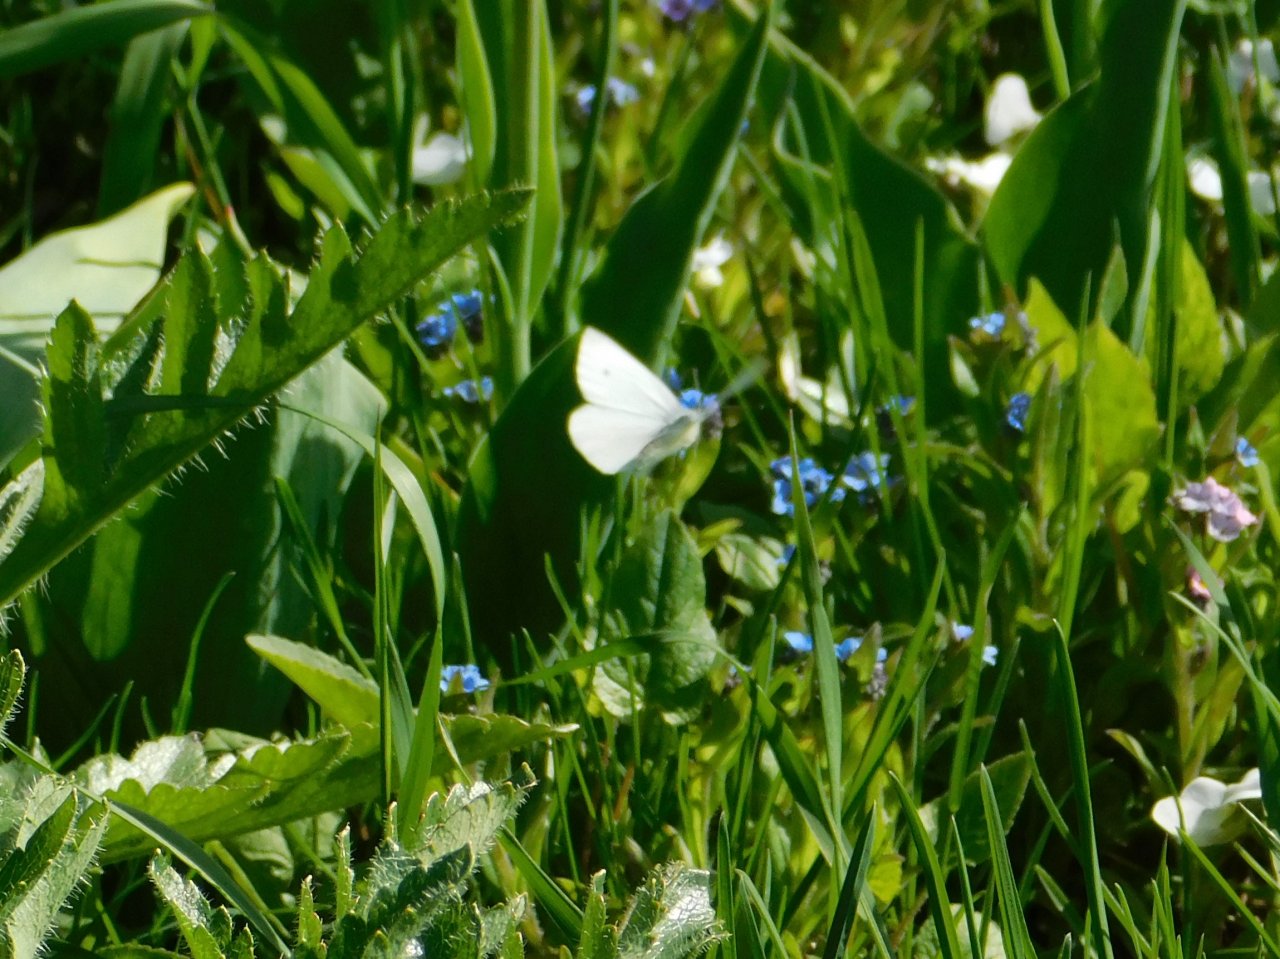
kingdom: Animalia
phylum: Arthropoda
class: Insecta
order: Lepidoptera
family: Pieridae
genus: Pieris
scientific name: Pieris rapae
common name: Cabbage White
